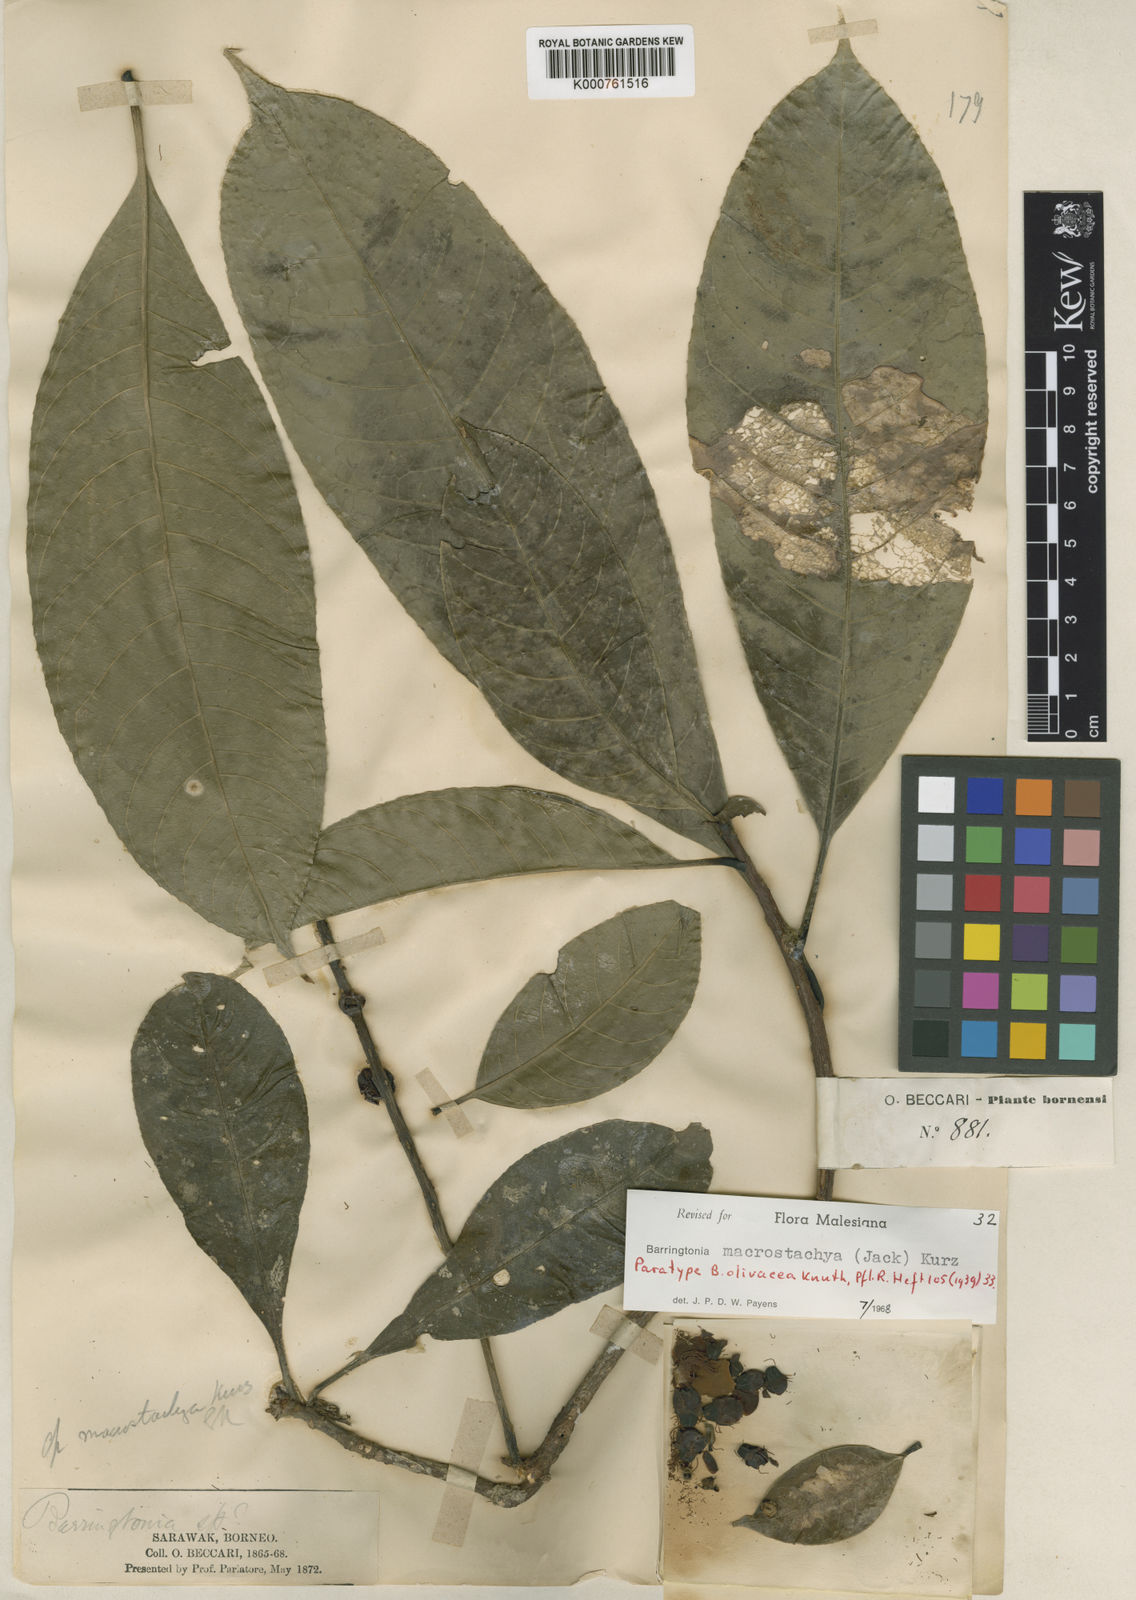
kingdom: Plantae
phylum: Tracheophyta
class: Magnoliopsida
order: Ericales
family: Lecythidaceae
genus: Barringtonia
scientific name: Barringtonia macrostachya
